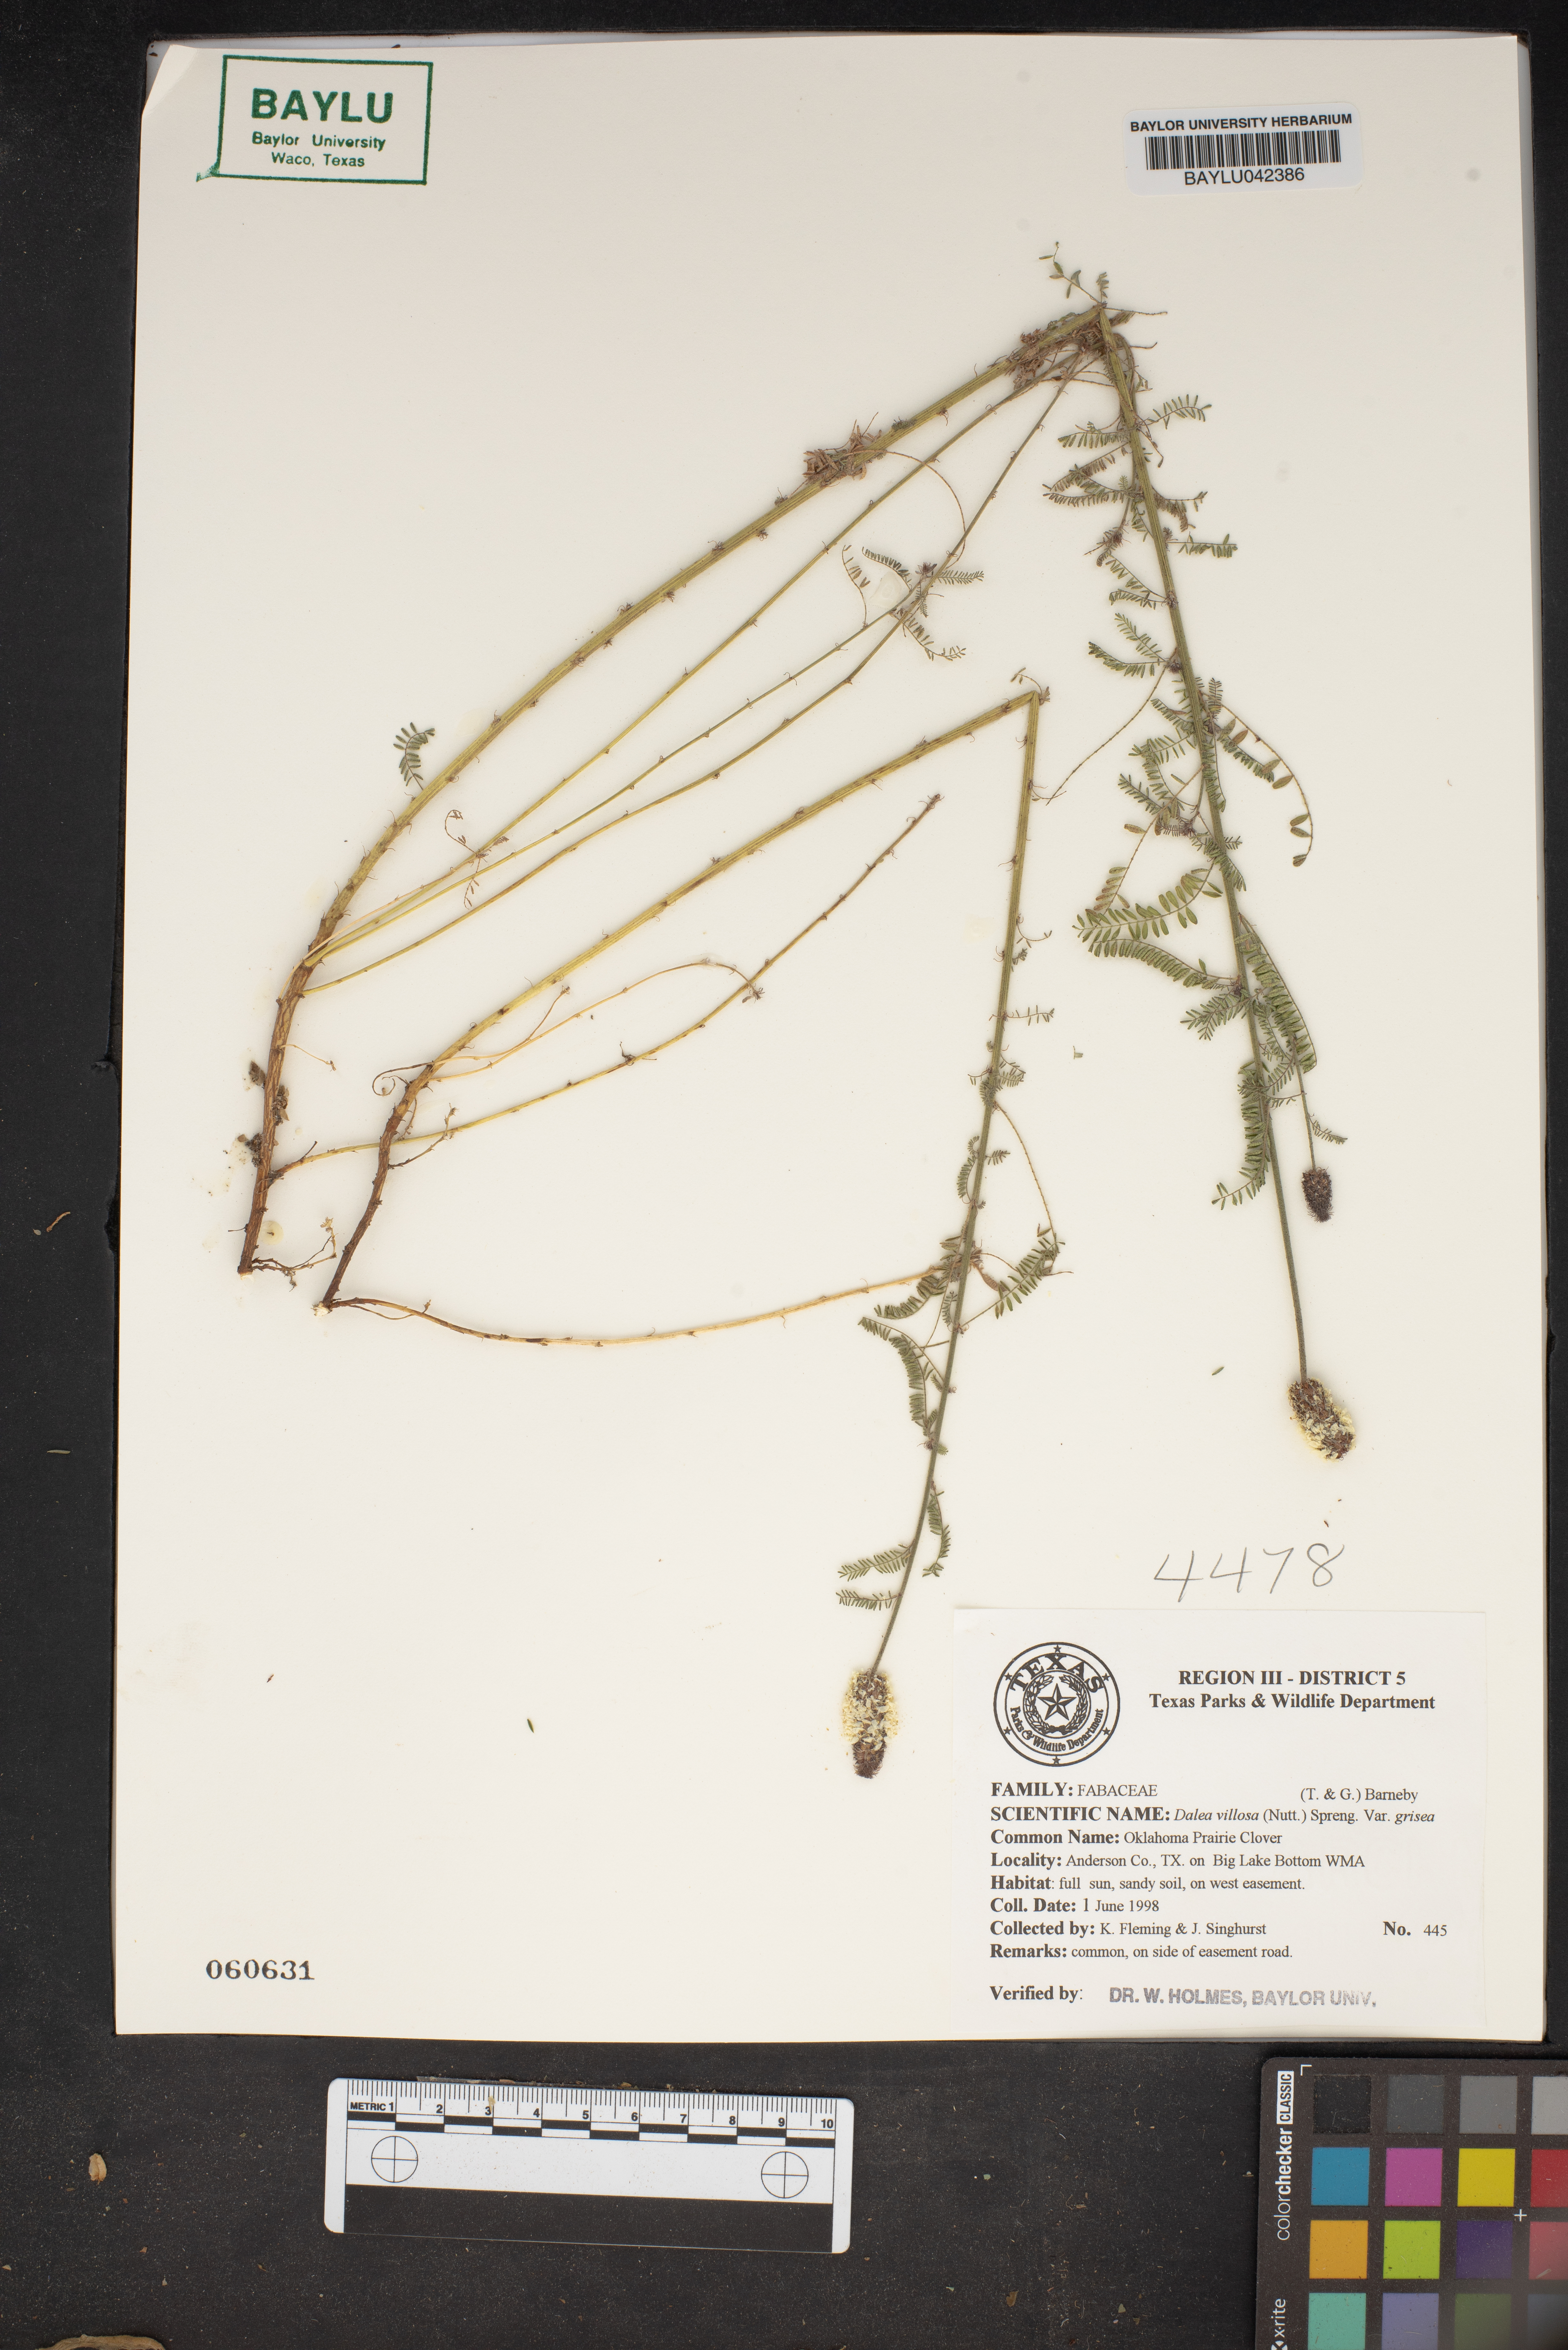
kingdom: Plantae
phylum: Tracheophyta
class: Magnoliopsida
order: Fabales
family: Fabaceae
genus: Dalea
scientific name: Dalea villosa
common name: Silky prairie-clover
